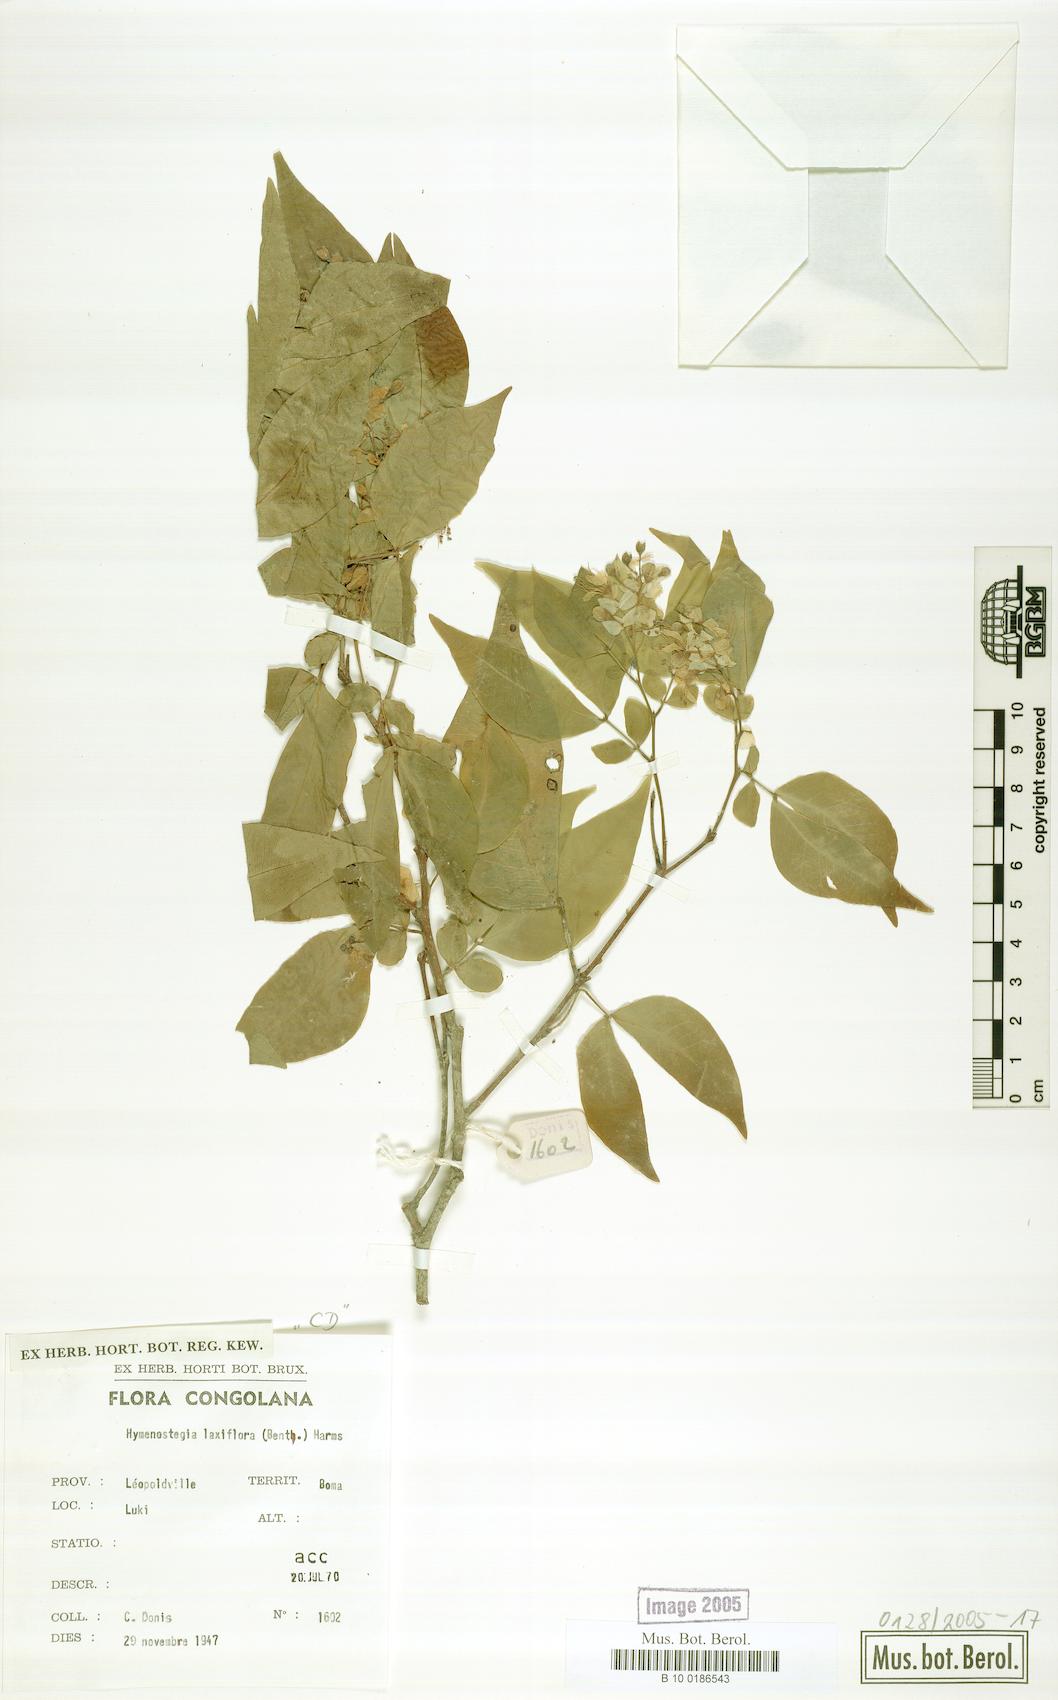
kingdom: Plantae
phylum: Tracheophyta
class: Magnoliopsida
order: Fabales
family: Fabaceae
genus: Annea
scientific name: Annea laxiflora
